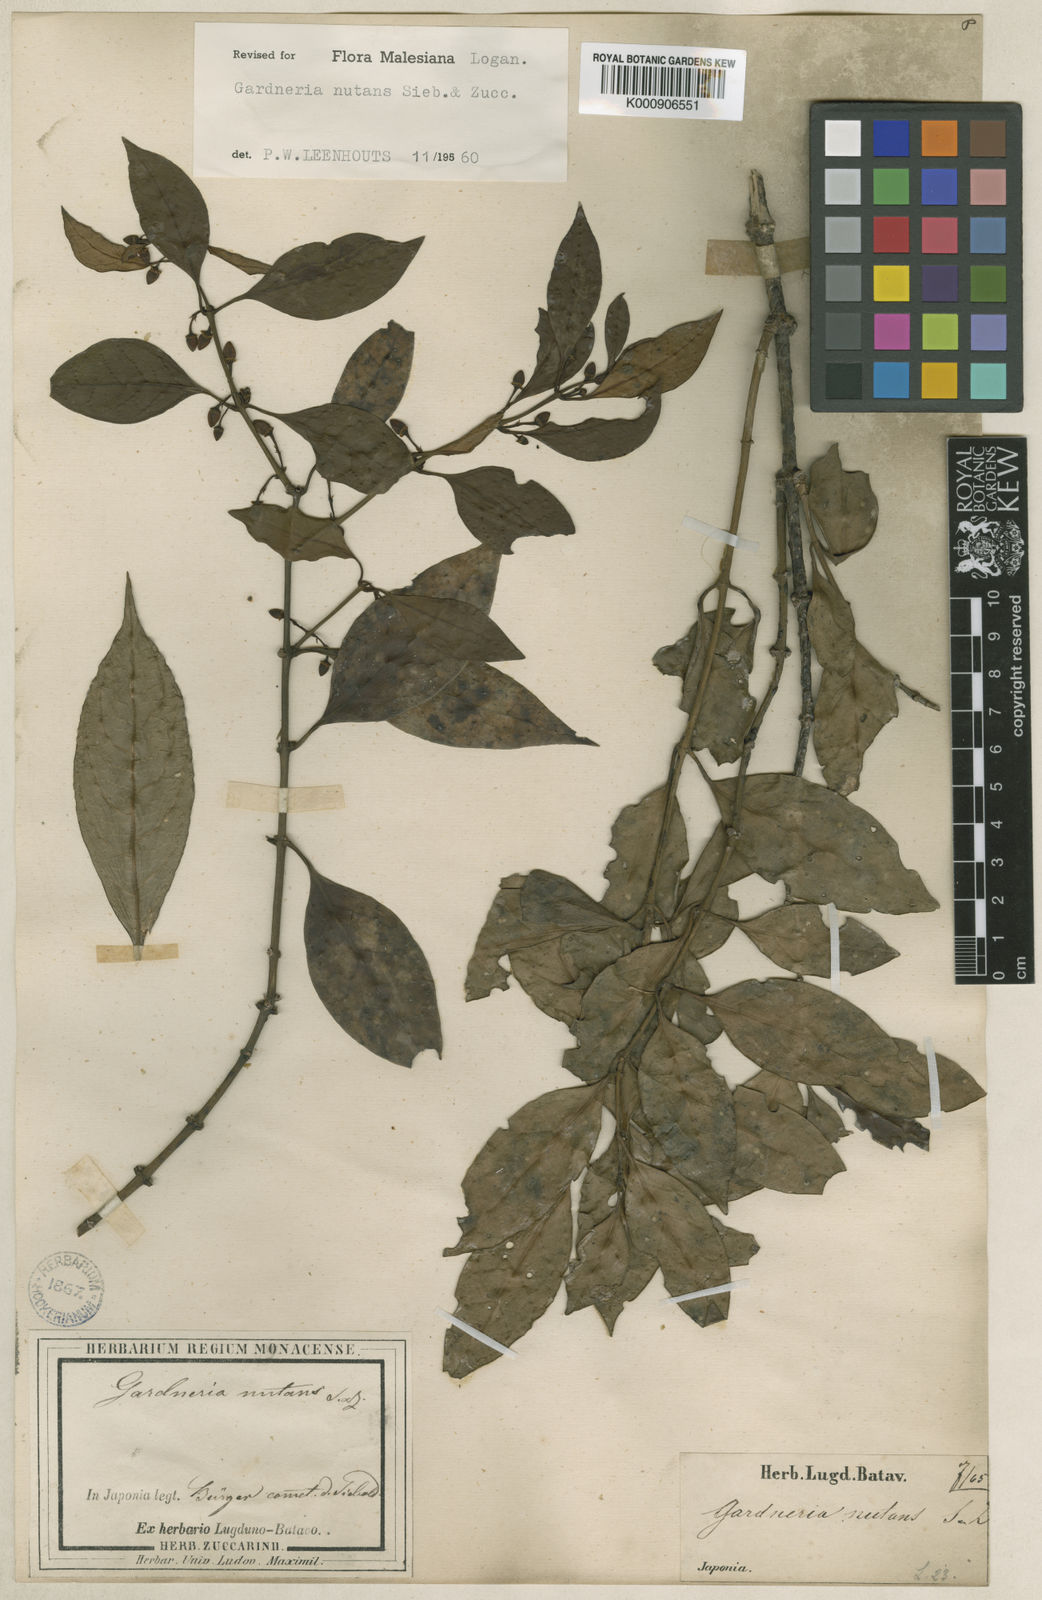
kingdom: Plantae
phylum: Tracheophyta
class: Magnoliopsida
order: Gentianales
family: Loganiaceae
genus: Gardneria
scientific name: Gardneria nutans
